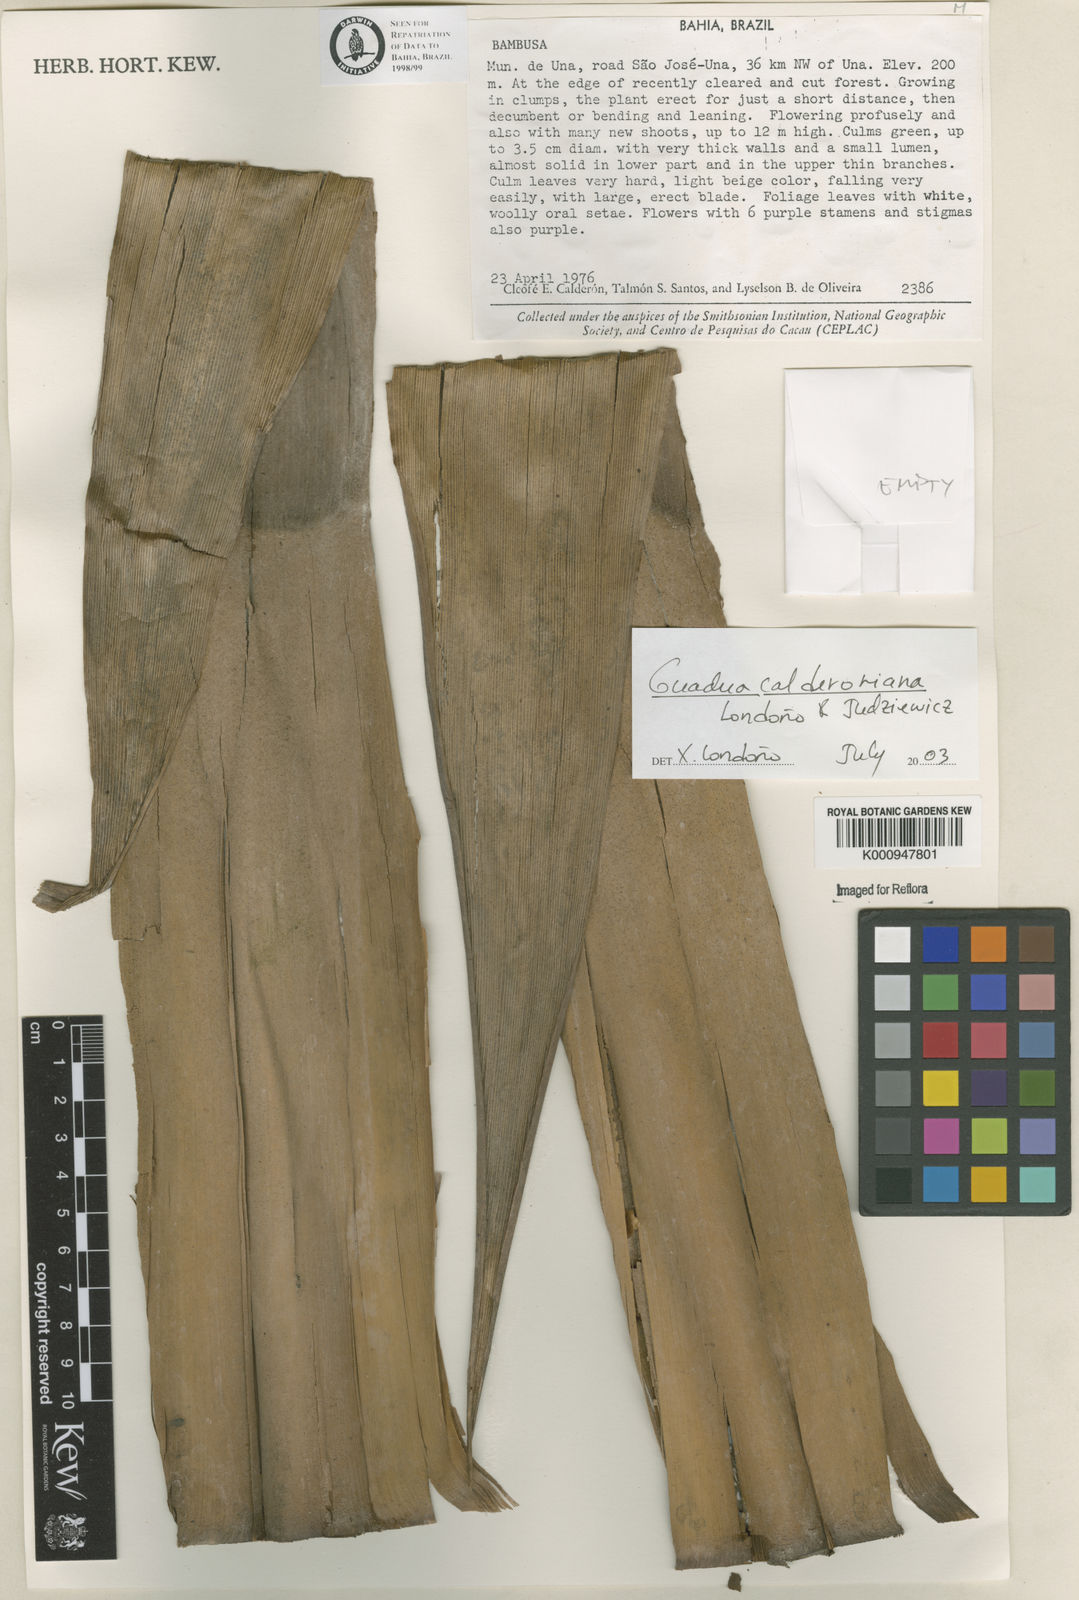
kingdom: Plantae
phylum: Tracheophyta
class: Liliopsida
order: Poales
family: Poaceae
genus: Guadua
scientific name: Guadua
